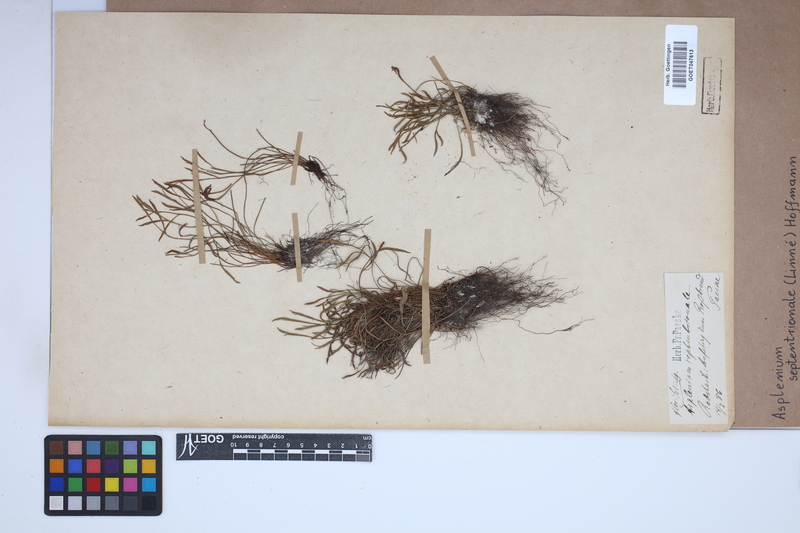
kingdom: Plantae
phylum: Tracheophyta
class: Polypodiopsida
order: Polypodiales
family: Aspleniaceae
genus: Asplenium
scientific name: Asplenium septentrionale
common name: Forked spleenwort
